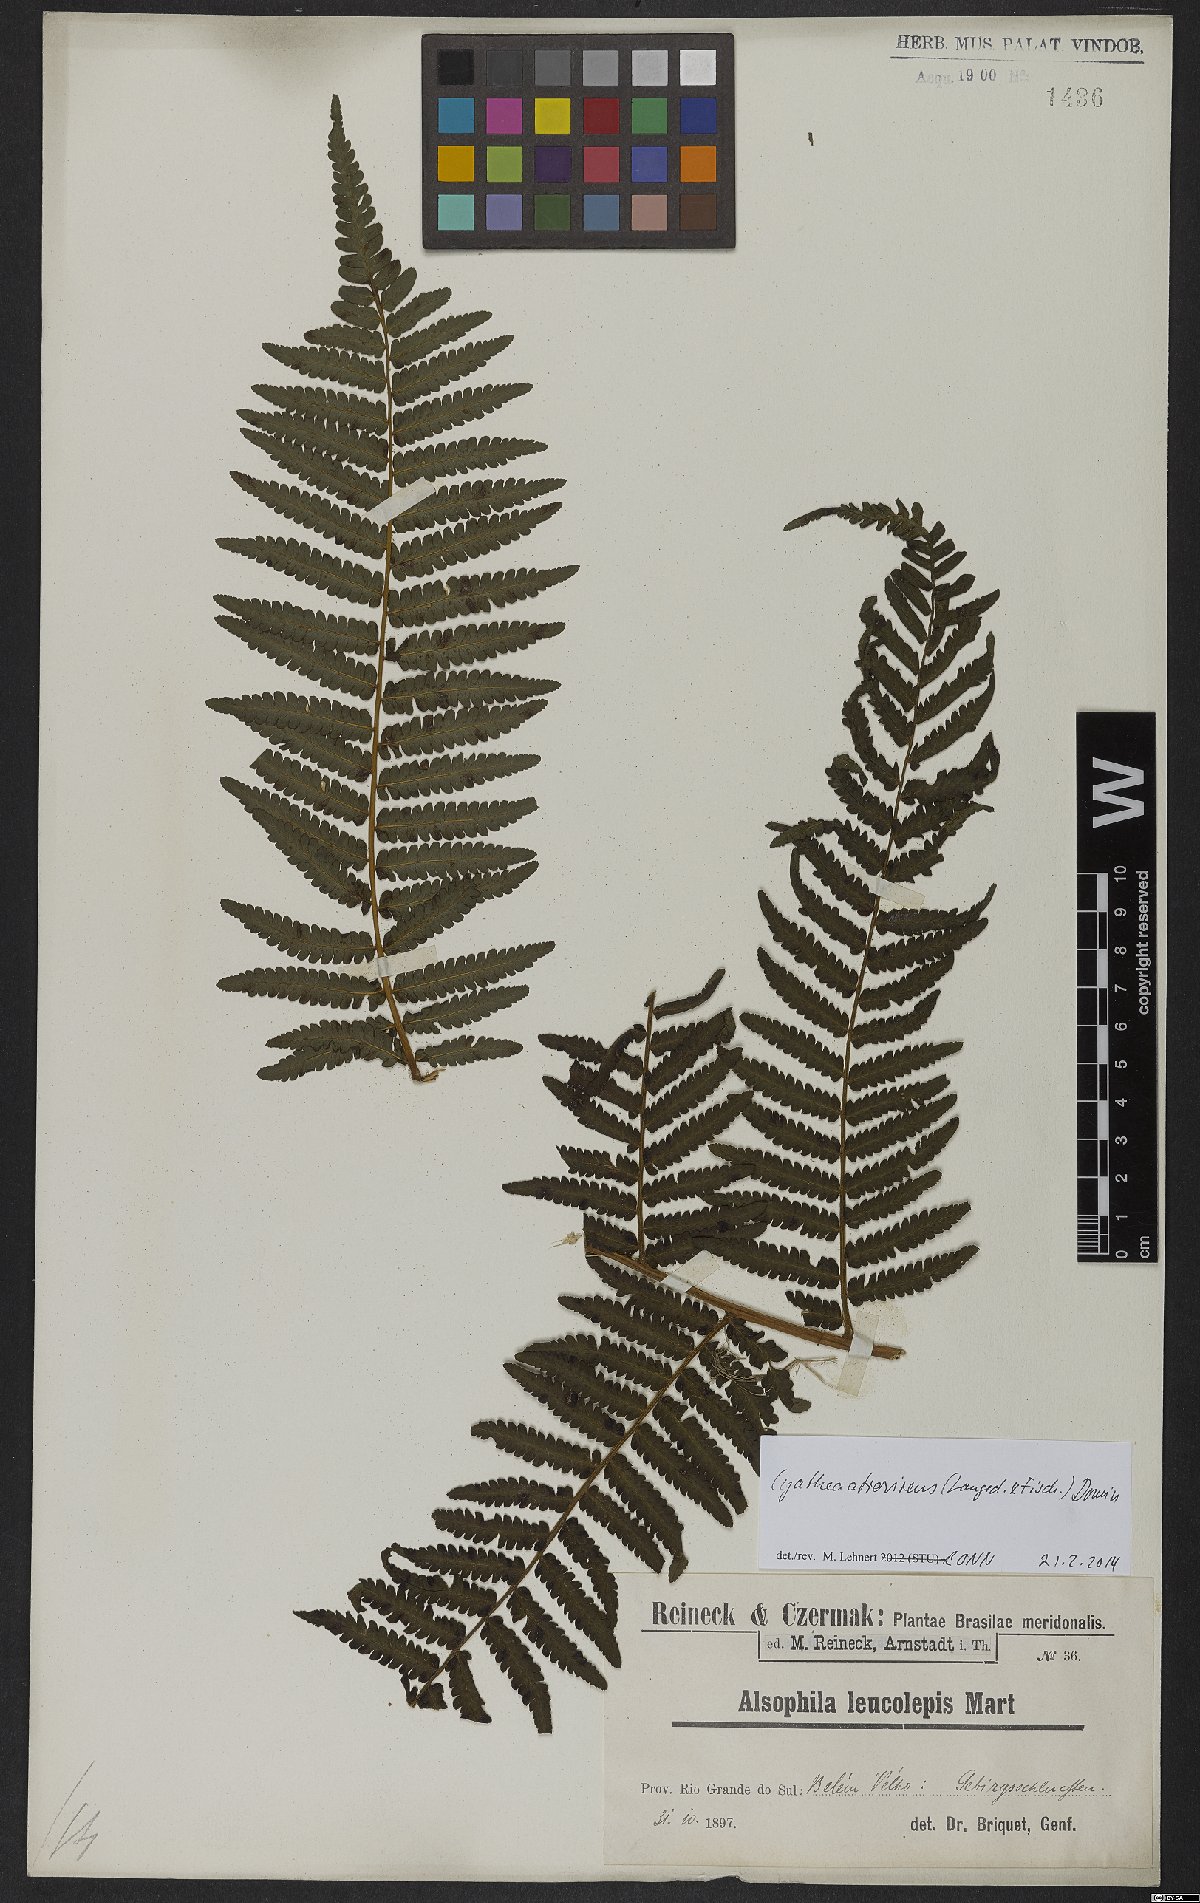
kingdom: Plantae
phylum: Tracheophyta
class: Polypodiopsida
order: Cyatheales
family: Cyatheaceae
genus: Cyathea
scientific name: Cyathea atrovirens
